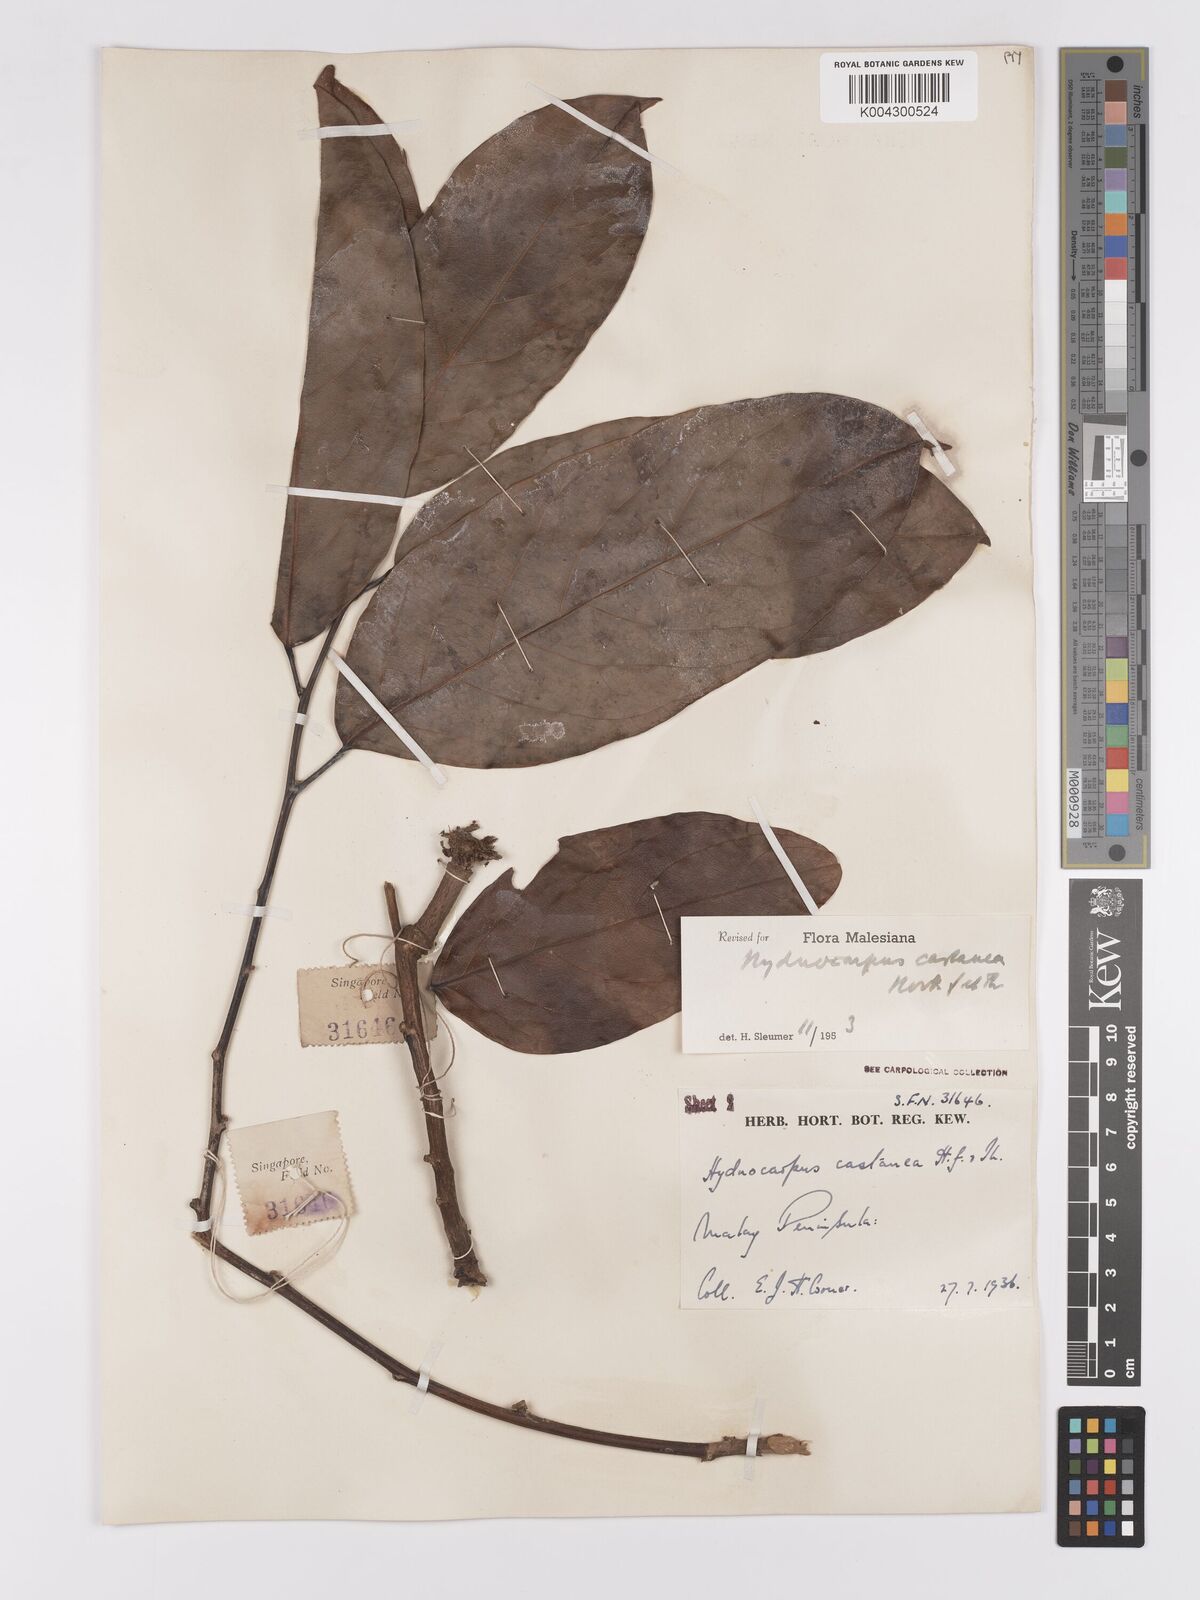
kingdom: Plantae
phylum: Tracheophyta
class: Magnoliopsida
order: Malpighiales
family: Achariaceae
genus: Hydnocarpus
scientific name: Hydnocarpus castaneus
